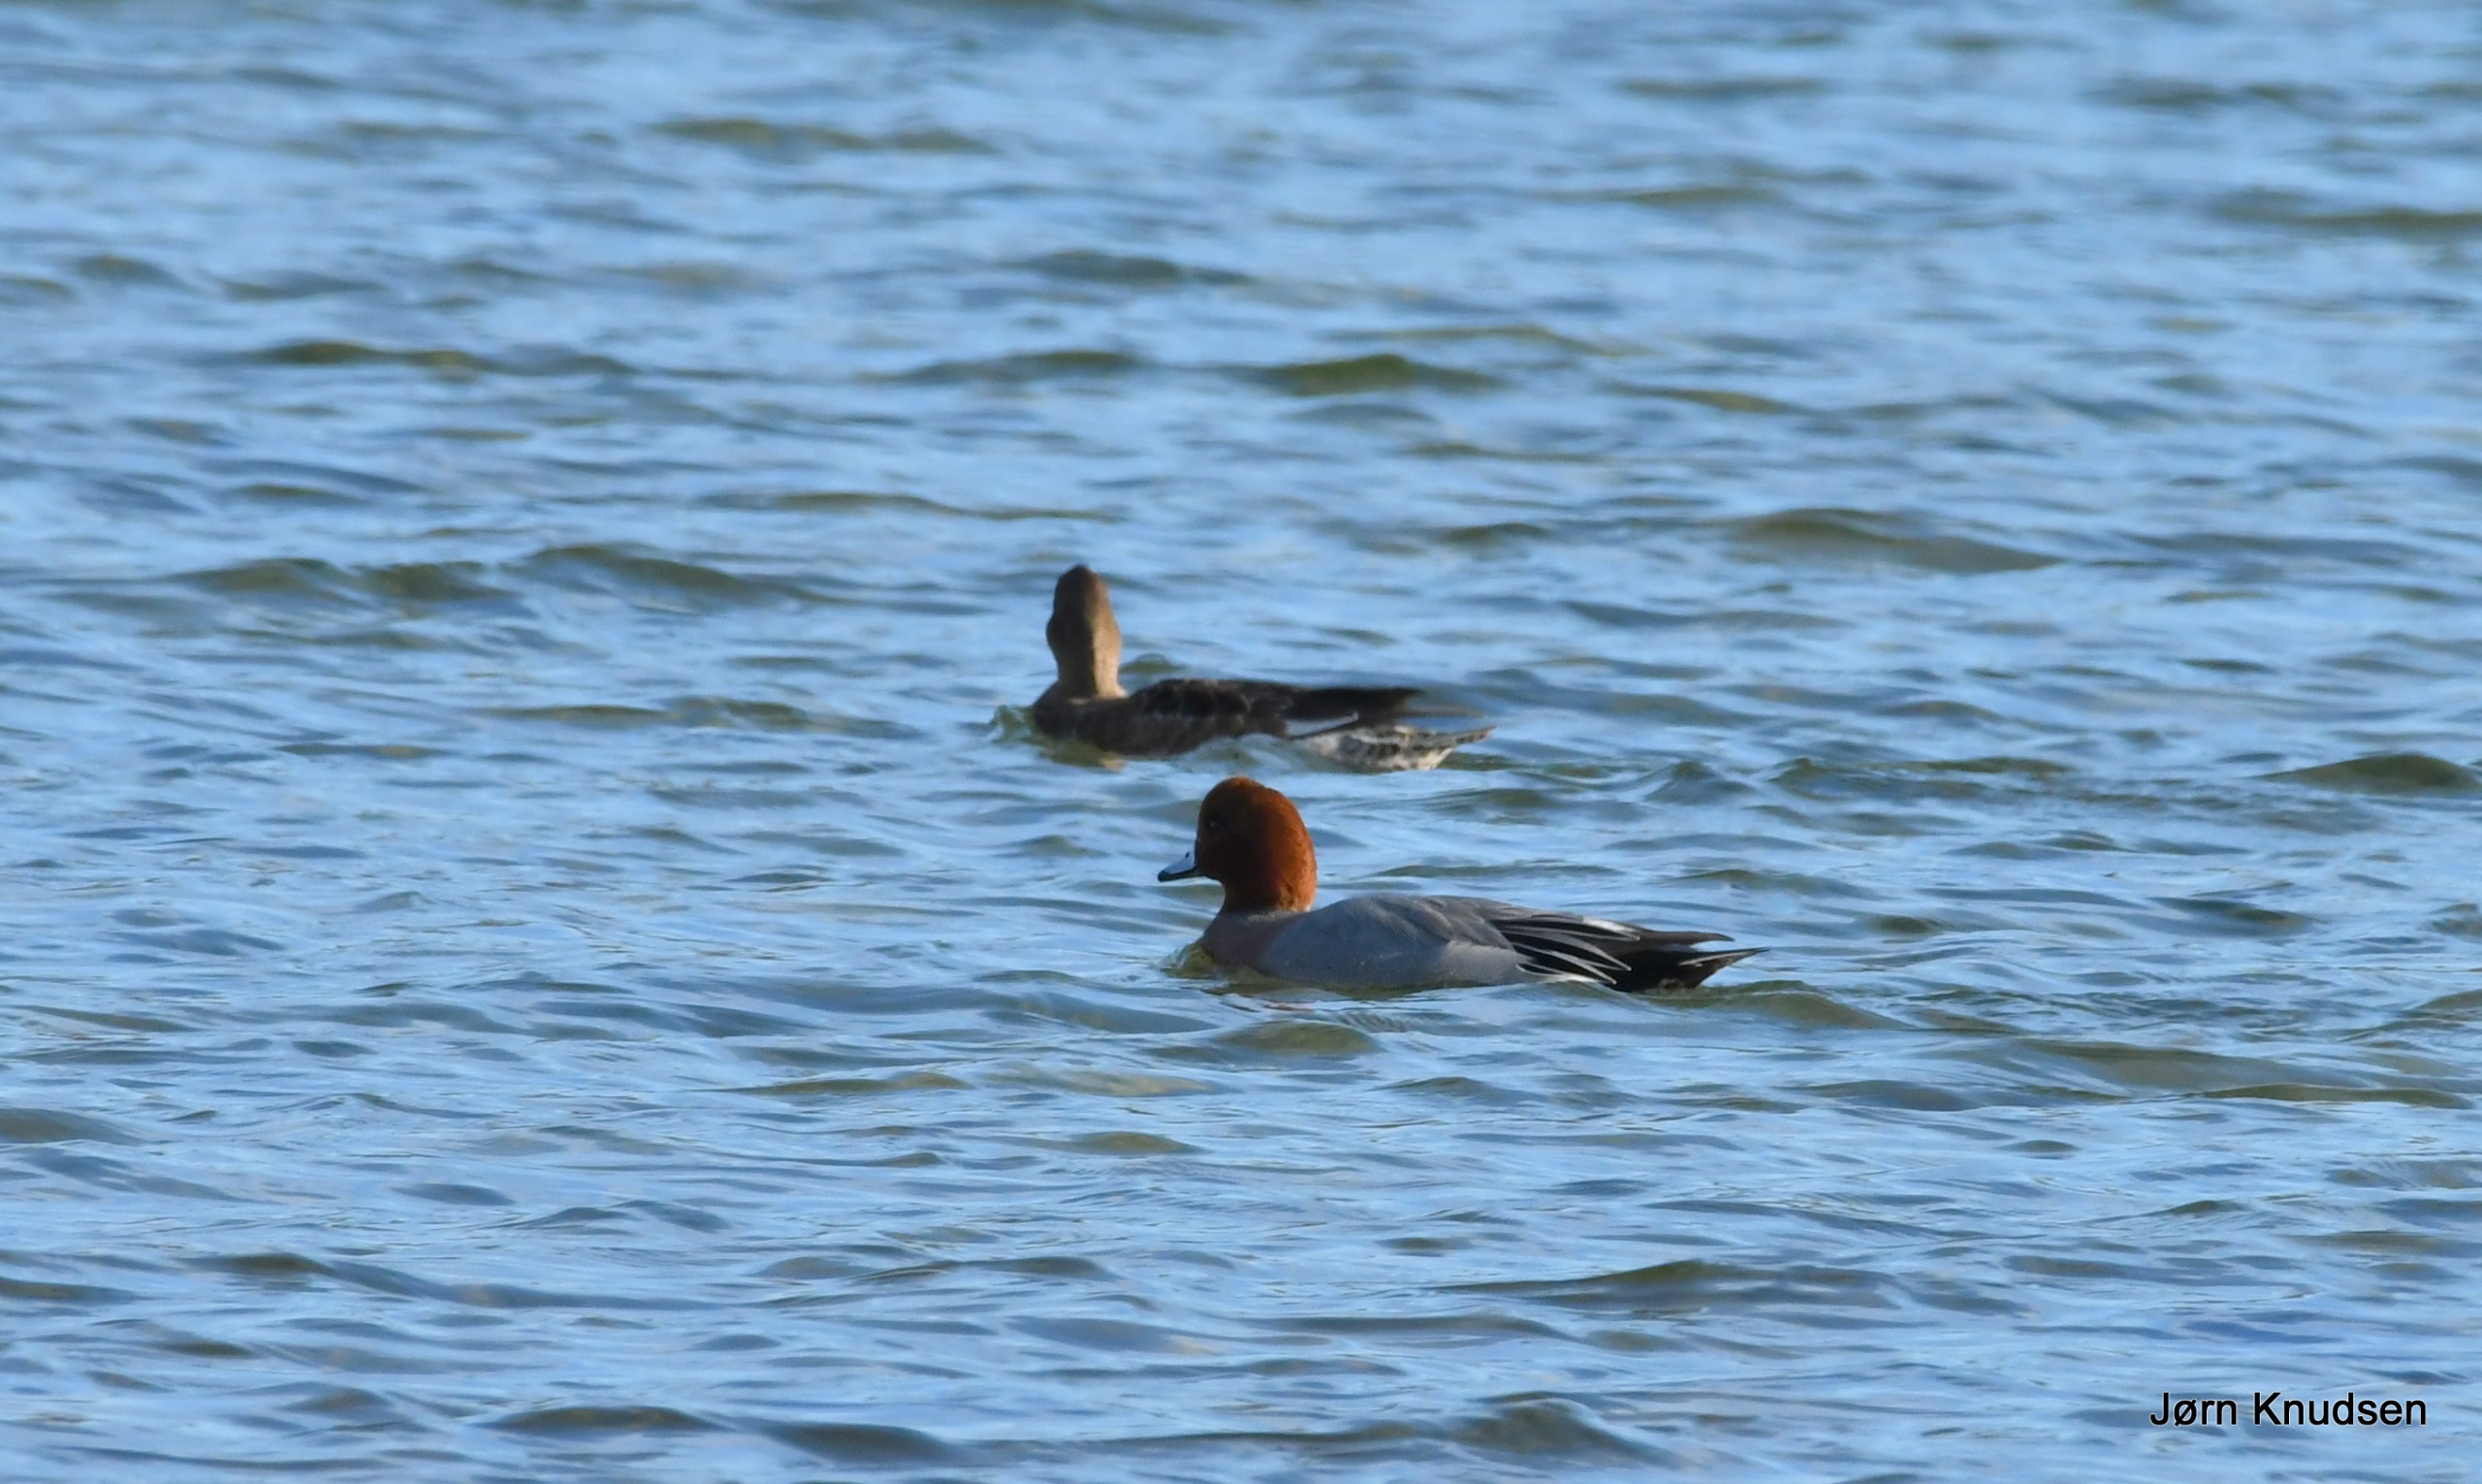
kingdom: Animalia
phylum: Chordata
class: Aves
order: Anseriformes
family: Anatidae
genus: Mareca
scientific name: Mareca penelope
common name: Pibeand
